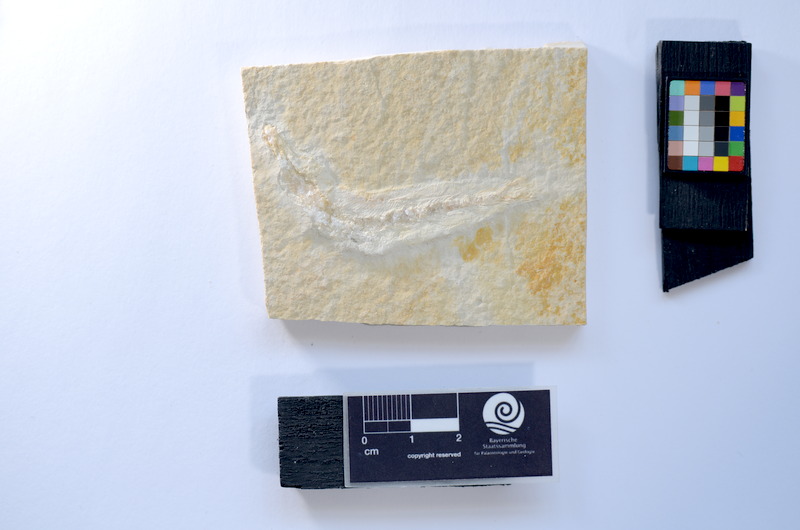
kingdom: Animalia
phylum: Chordata
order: Salmoniformes
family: Orthogonikleithridae
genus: Leptolepides
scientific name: Leptolepides
